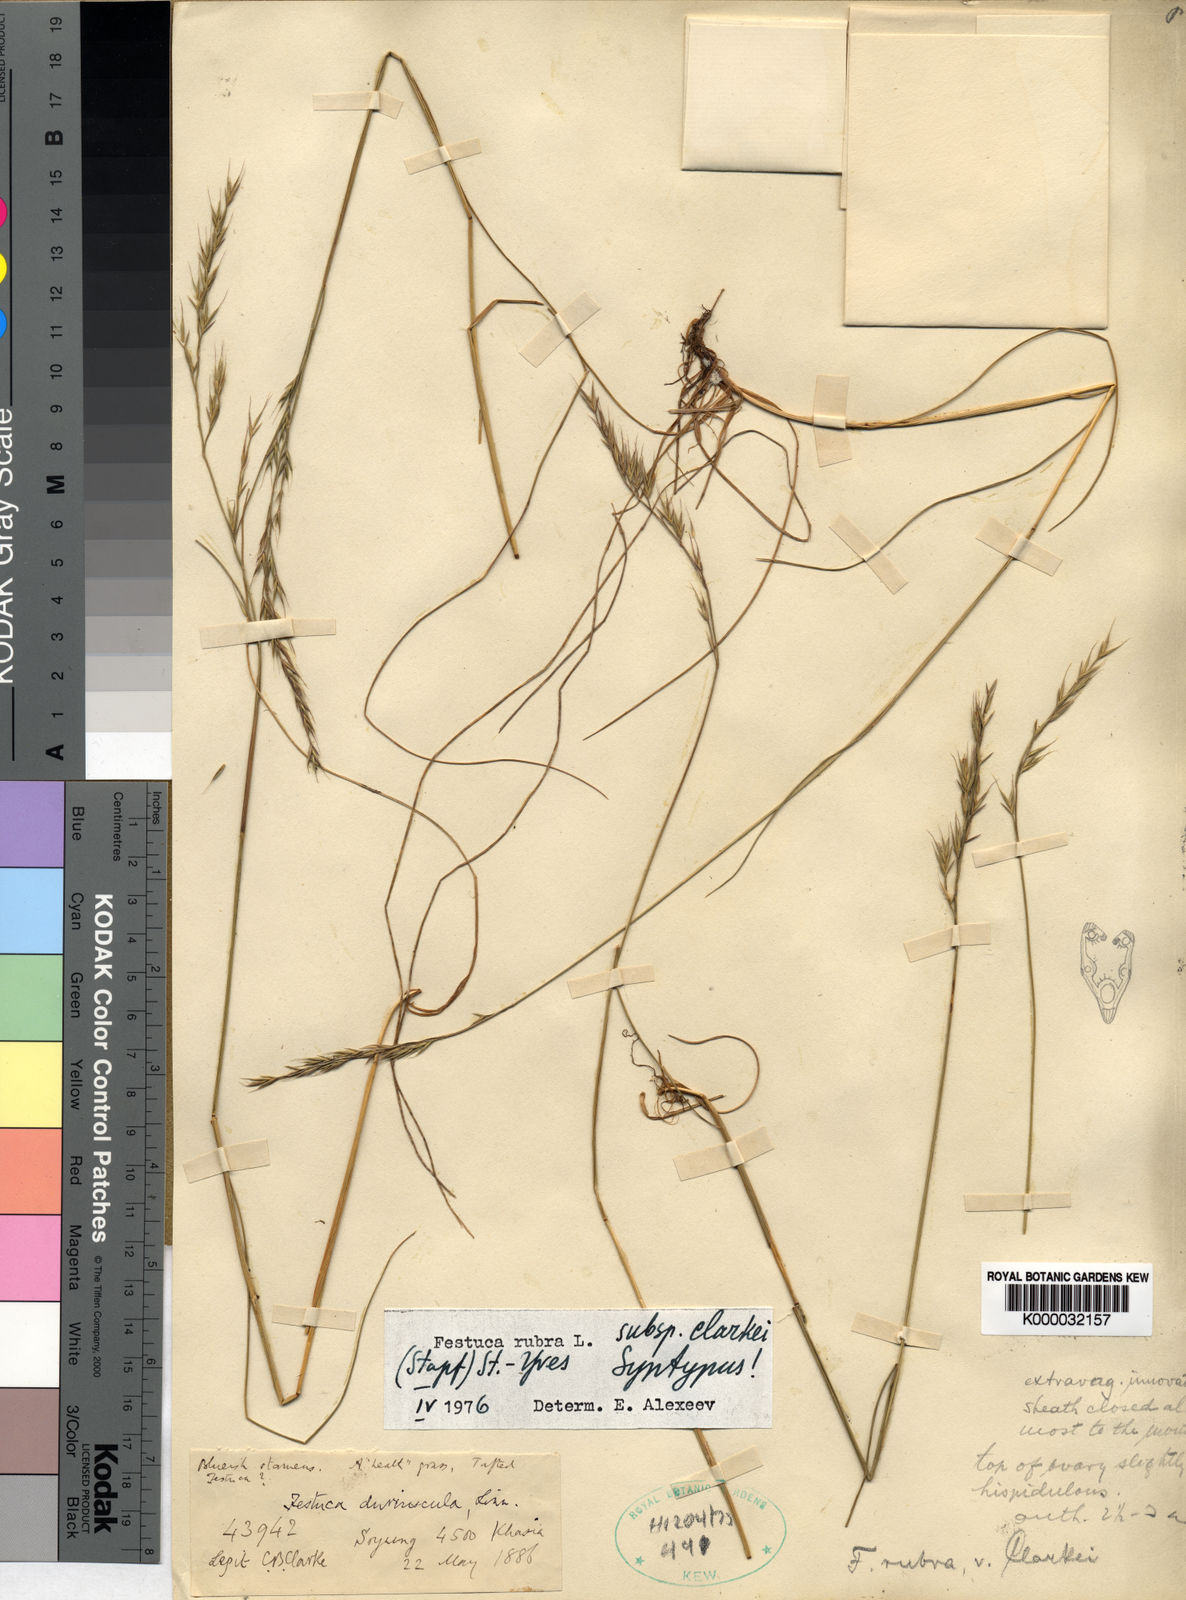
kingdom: Plantae
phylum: Tracheophyta
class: Liliopsida
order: Poales
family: Poaceae
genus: Festuca
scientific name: Festuca rubra
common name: Red fescue
